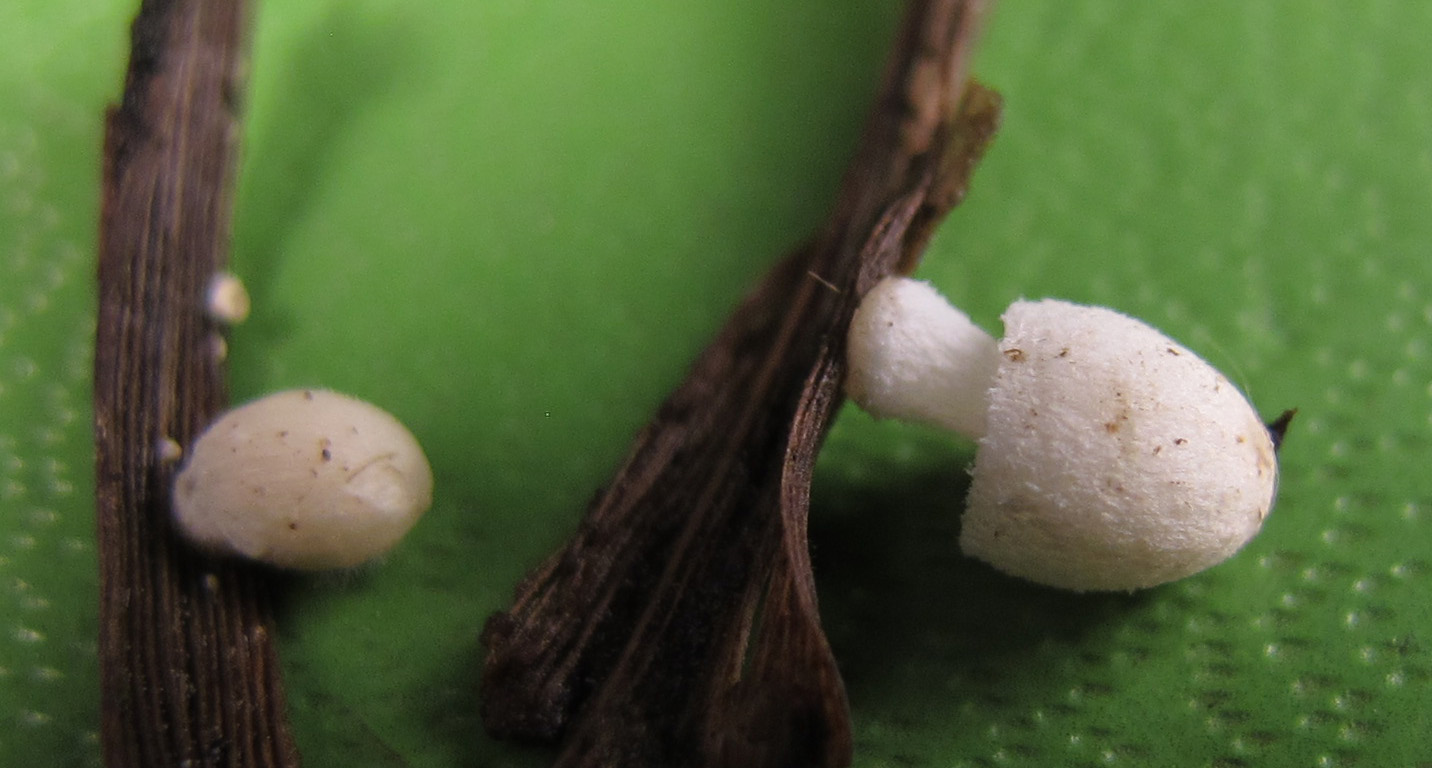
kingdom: Fungi
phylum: Basidiomycota
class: Agaricomycetes
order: Agaricales
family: Psathyrellaceae
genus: Coprinopsis
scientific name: Coprinopsis urticicola
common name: urte-blækhat
